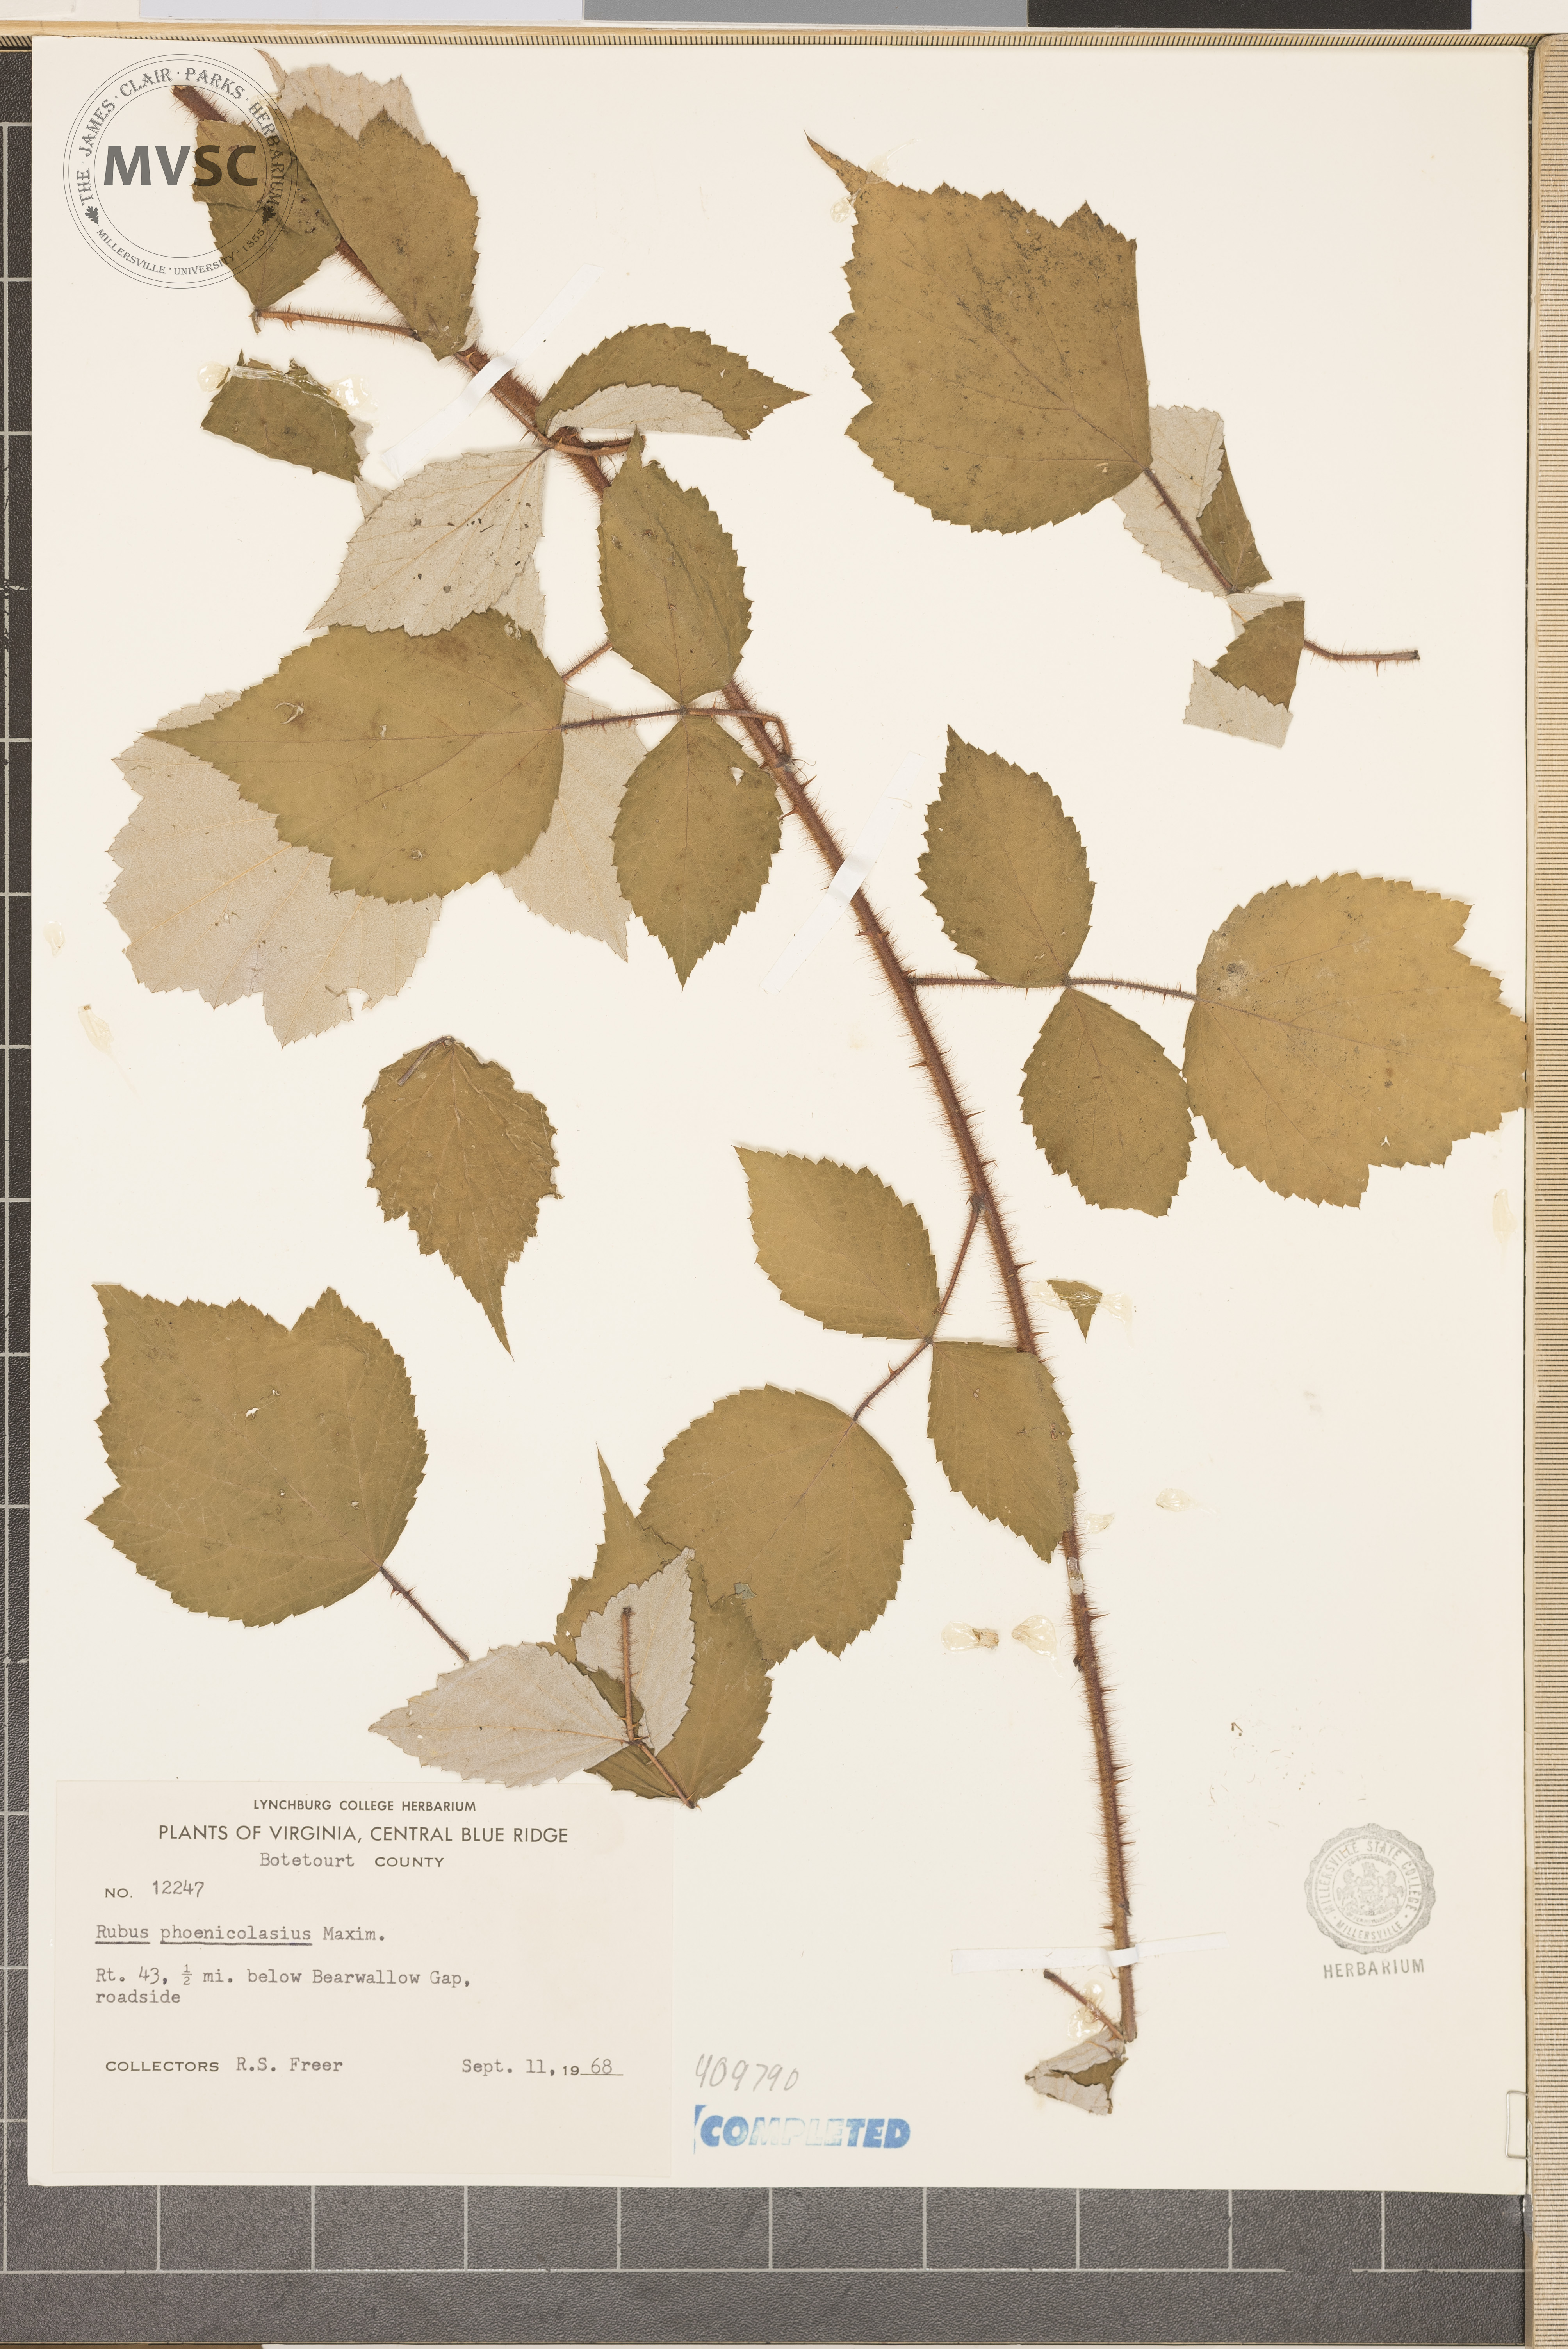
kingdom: Plantae
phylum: Tracheophyta
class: Magnoliopsida
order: Rosales
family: Rosaceae
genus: Rubus
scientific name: Rubus phoenicolasius
